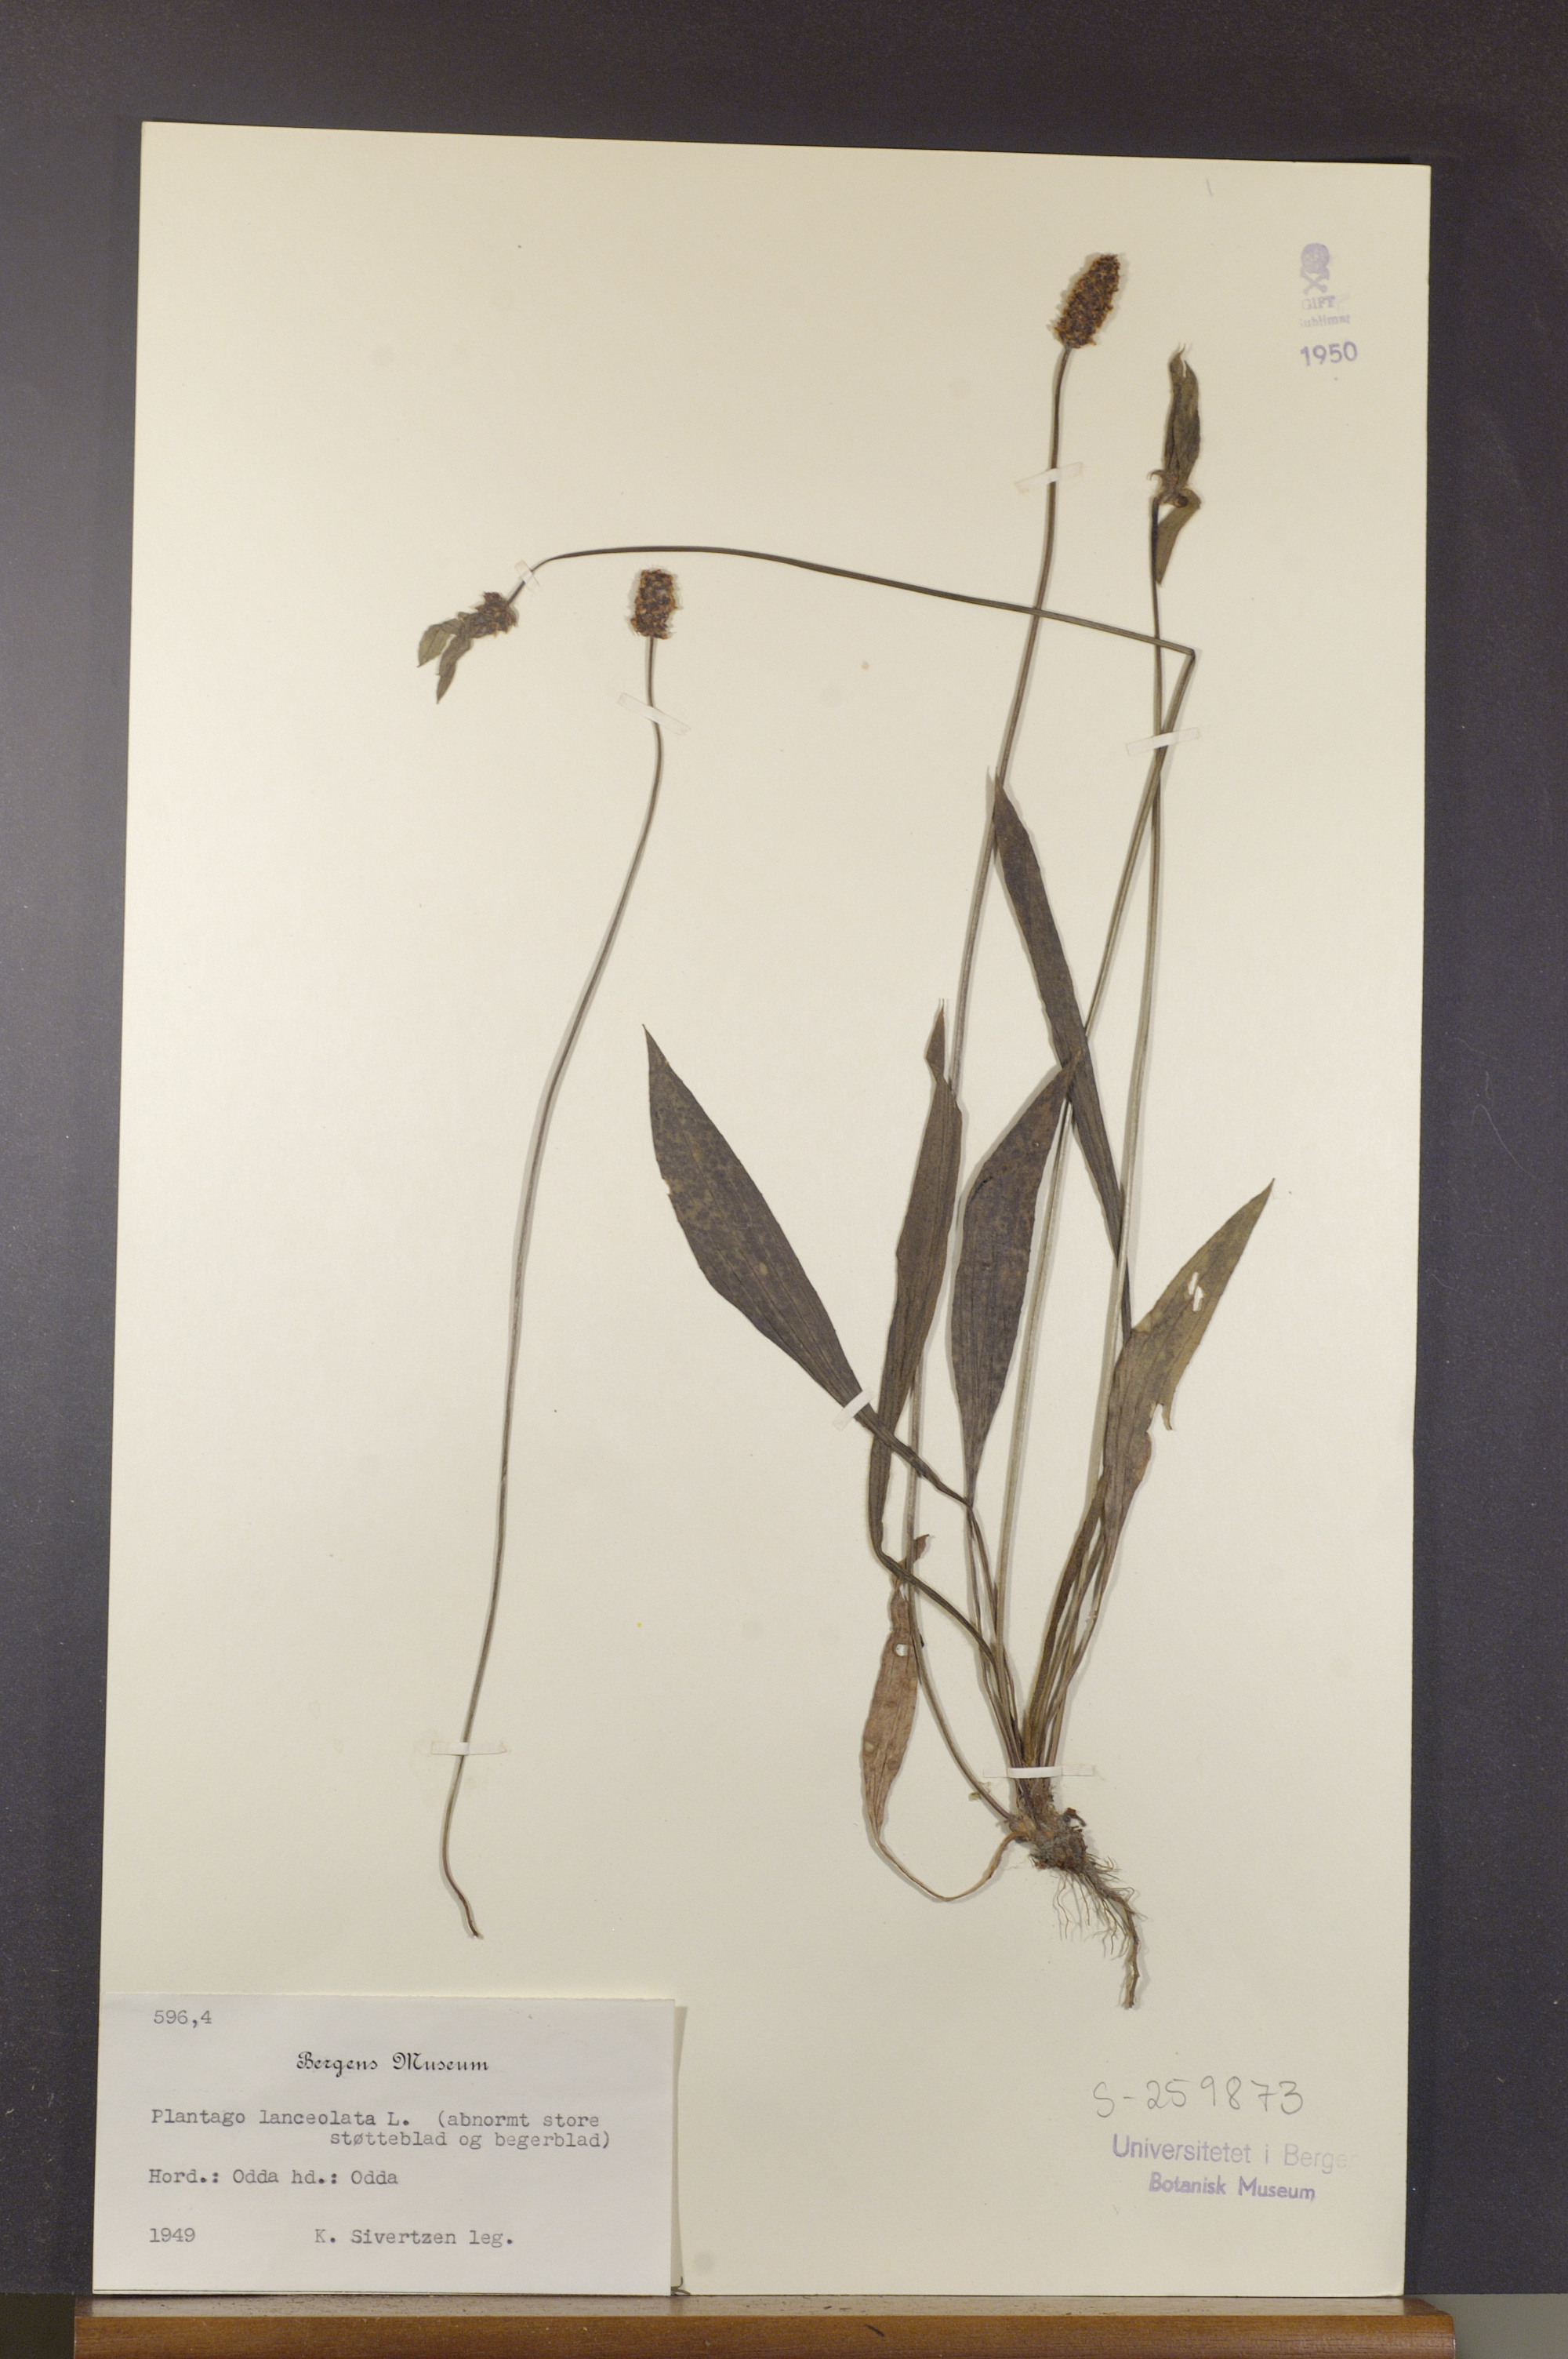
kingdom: Plantae
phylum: Tracheophyta
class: Magnoliopsida
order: Lamiales
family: Plantaginaceae
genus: Plantago
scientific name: Plantago lanceolata
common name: Ribwort plantain
